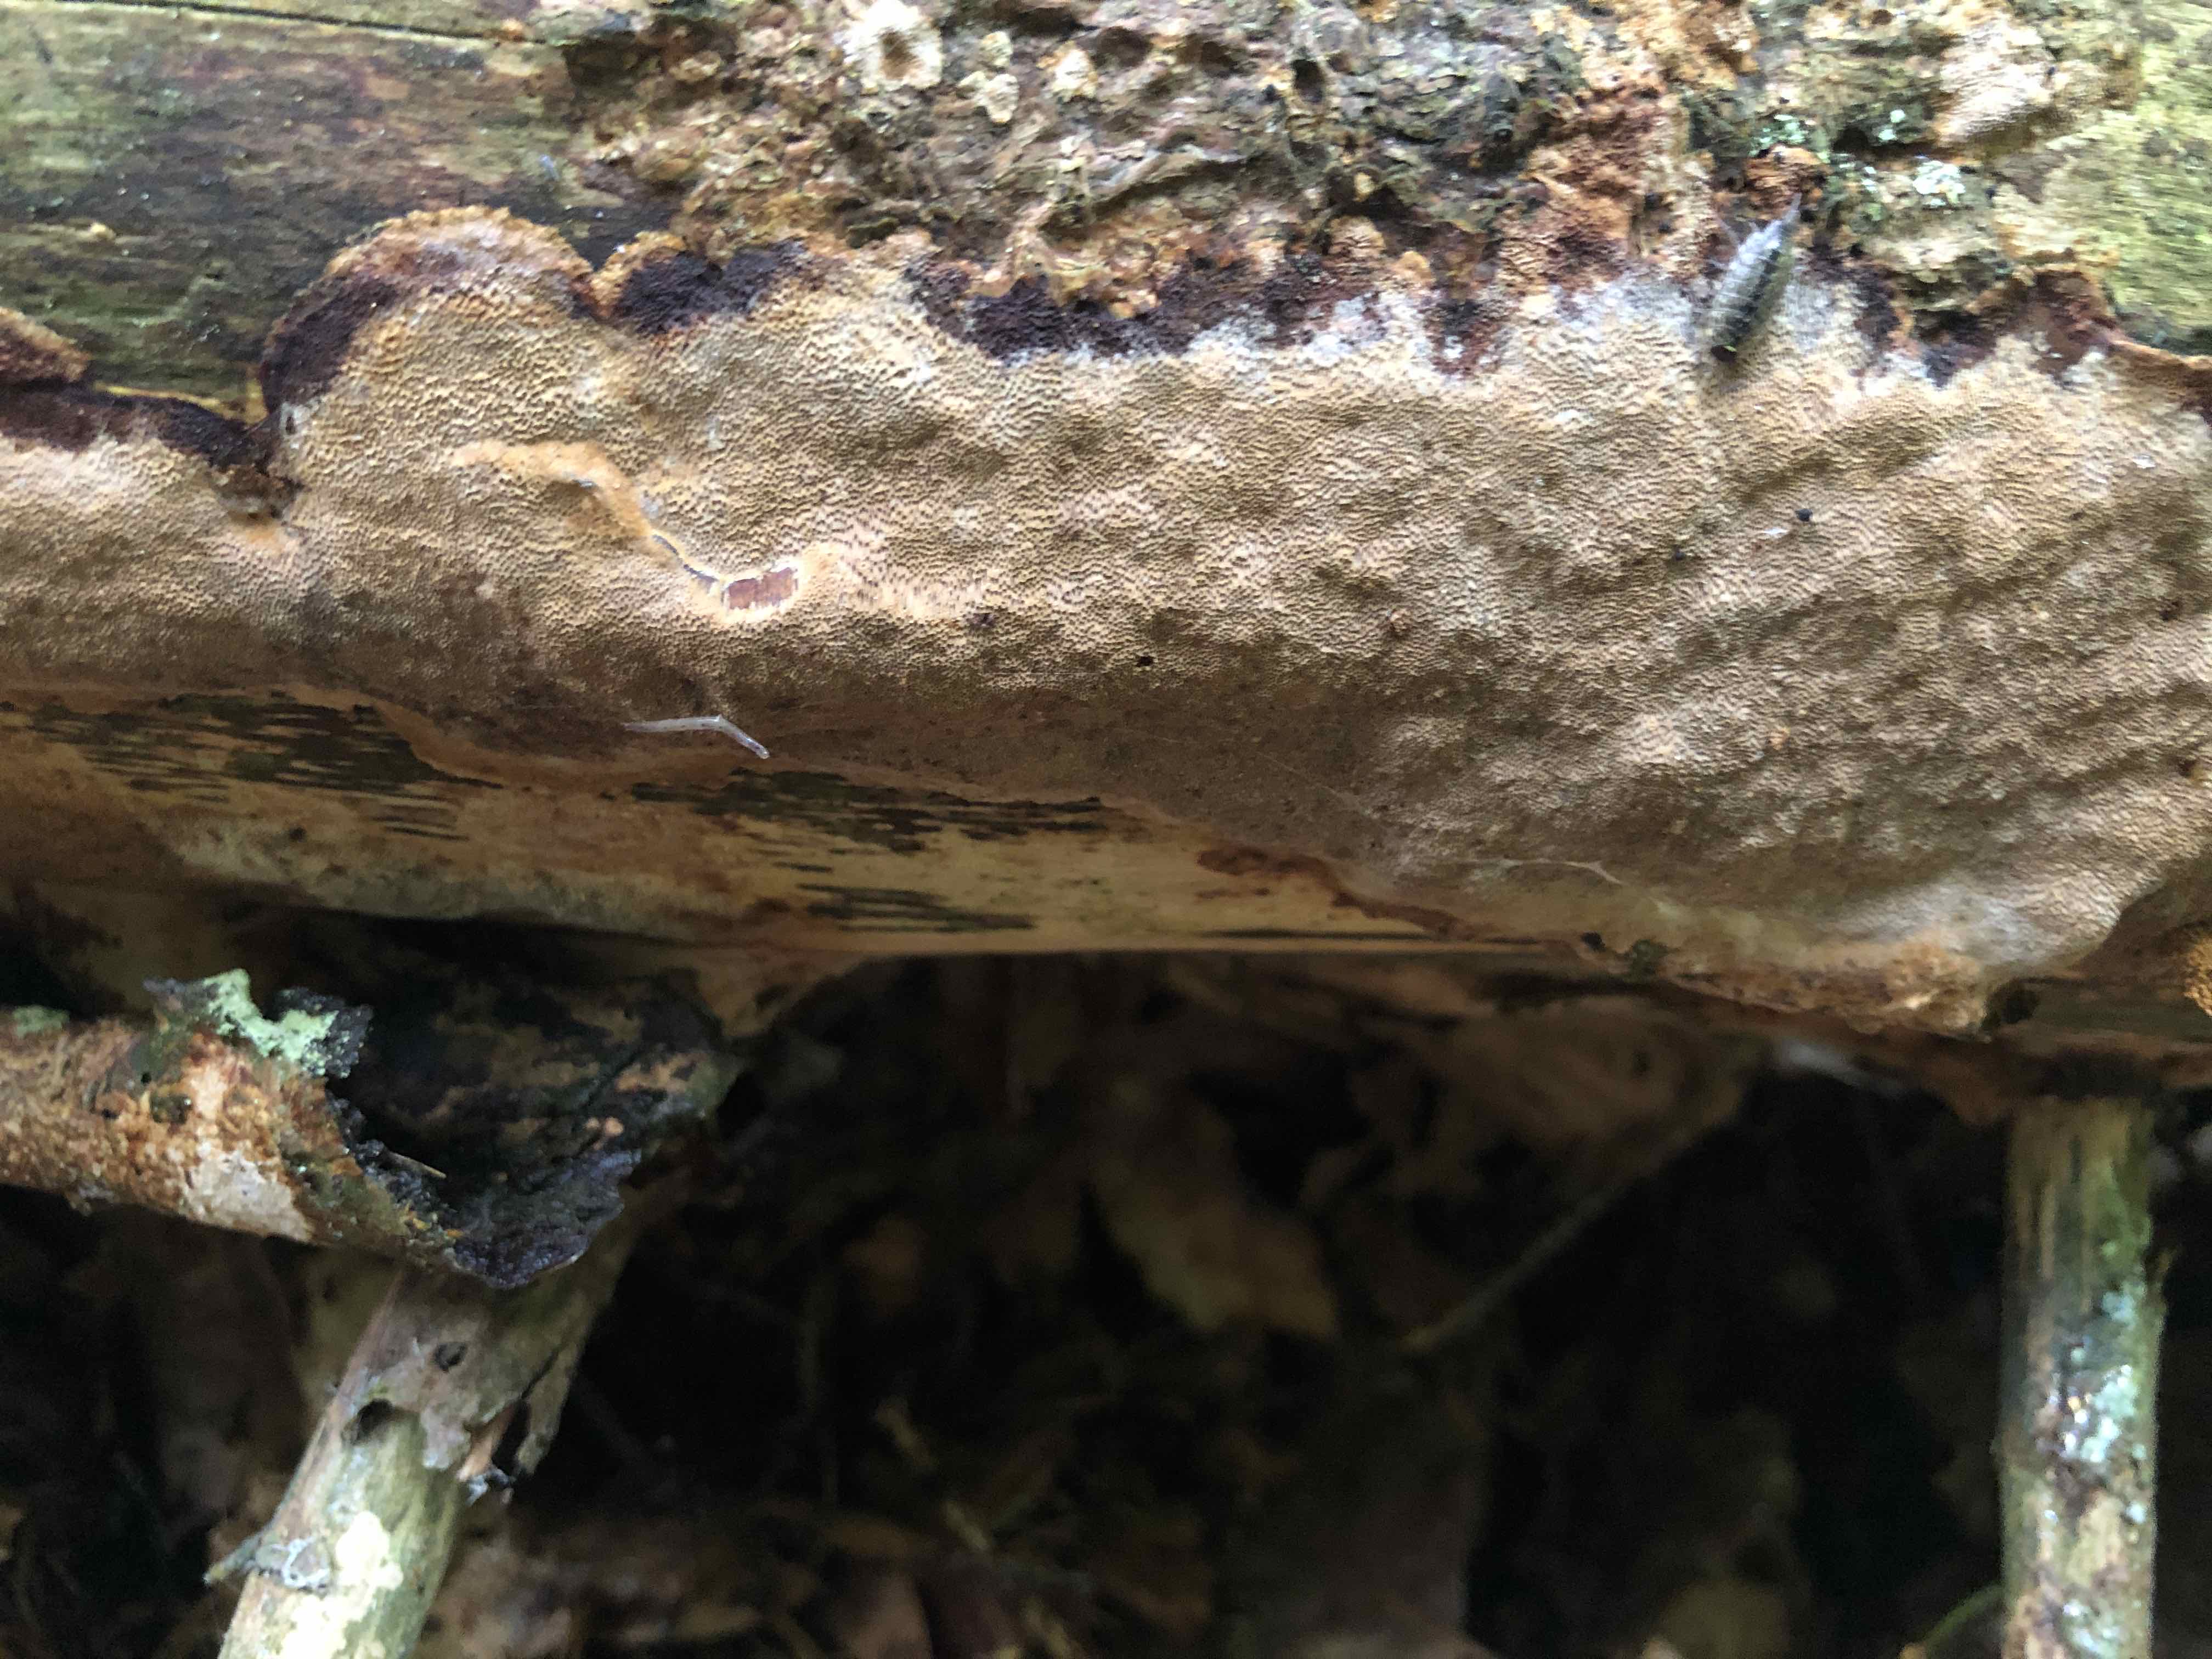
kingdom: Fungi
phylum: Basidiomycota
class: Agaricomycetes
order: Hymenochaetales
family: Hymenochaetaceae
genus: Fuscoporia
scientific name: Fuscoporia ferrea
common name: skorpe-ildporesvamp
